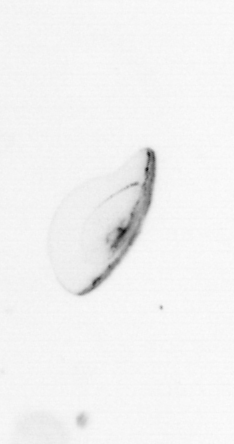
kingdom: Chromista
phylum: Ochrophyta
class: Bacillariophyceae
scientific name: Bacillariophyceae
